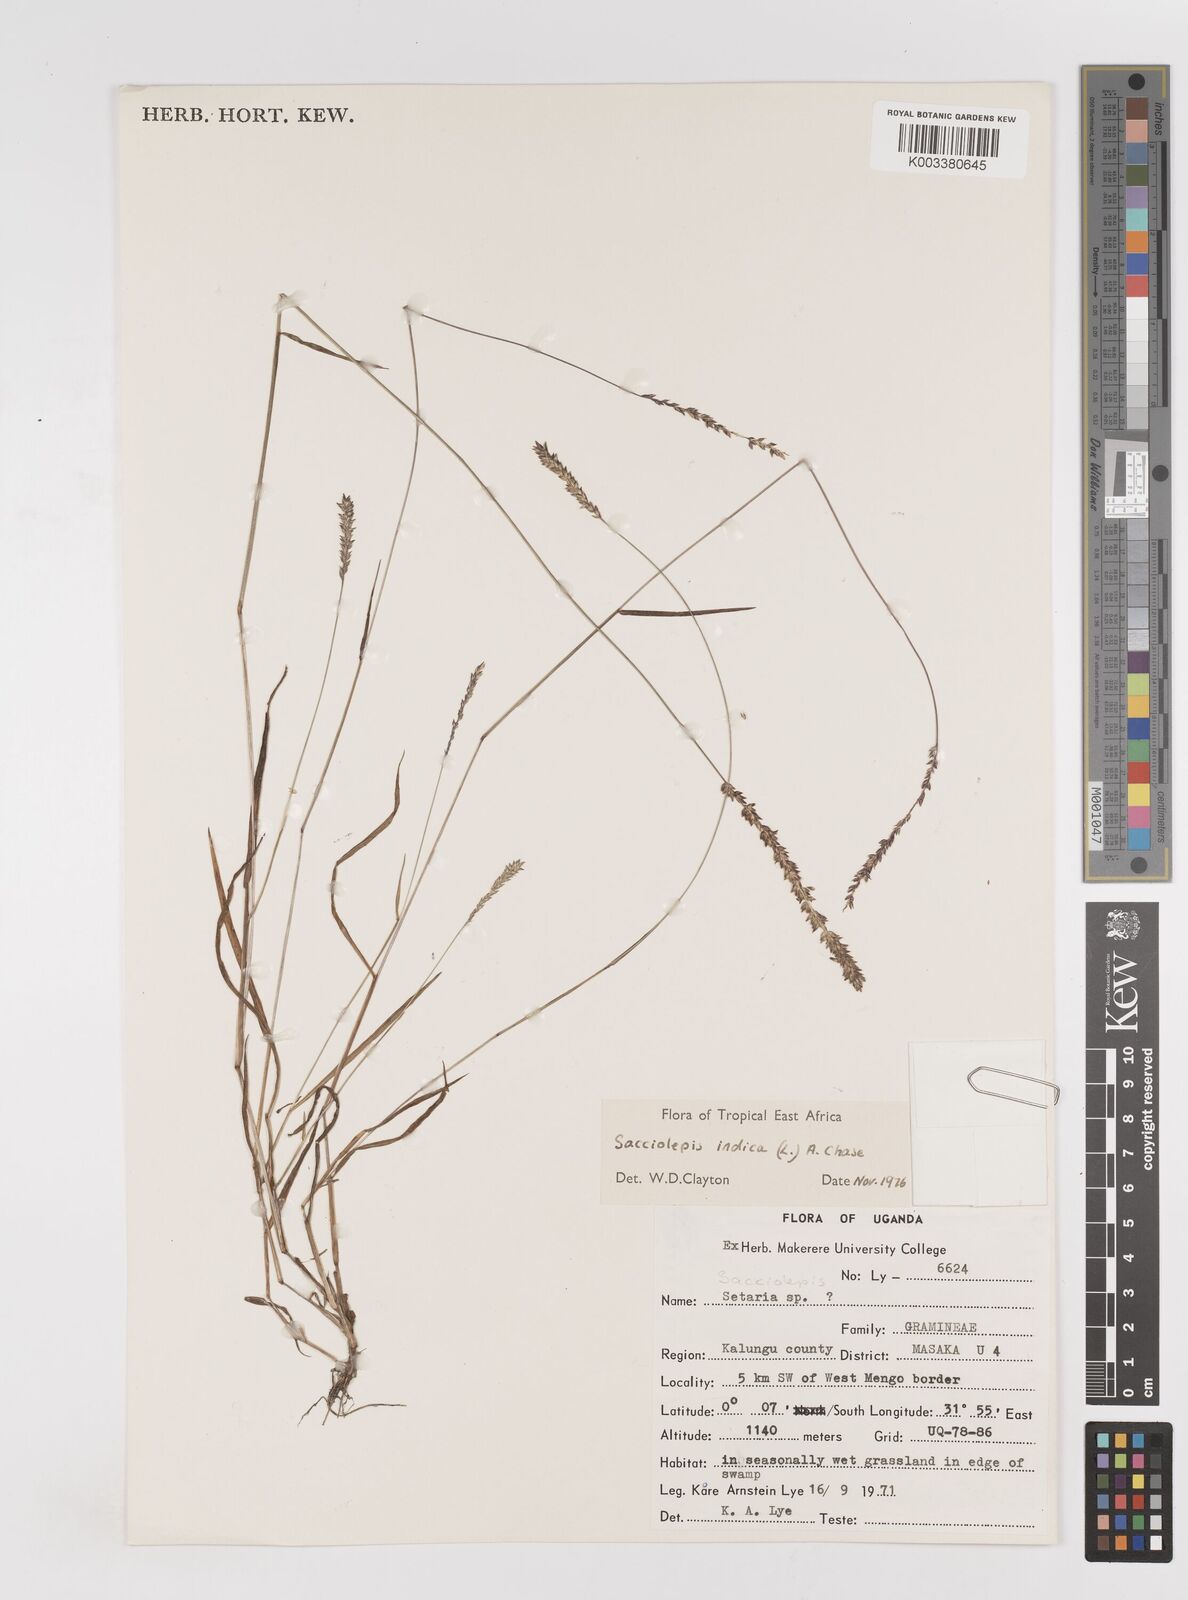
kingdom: Plantae
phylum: Tracheophyta
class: Liliopsida
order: Poales
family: Poaceae
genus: Sacciolepis
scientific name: Sacciolepis indica
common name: Glenwoodgrass
